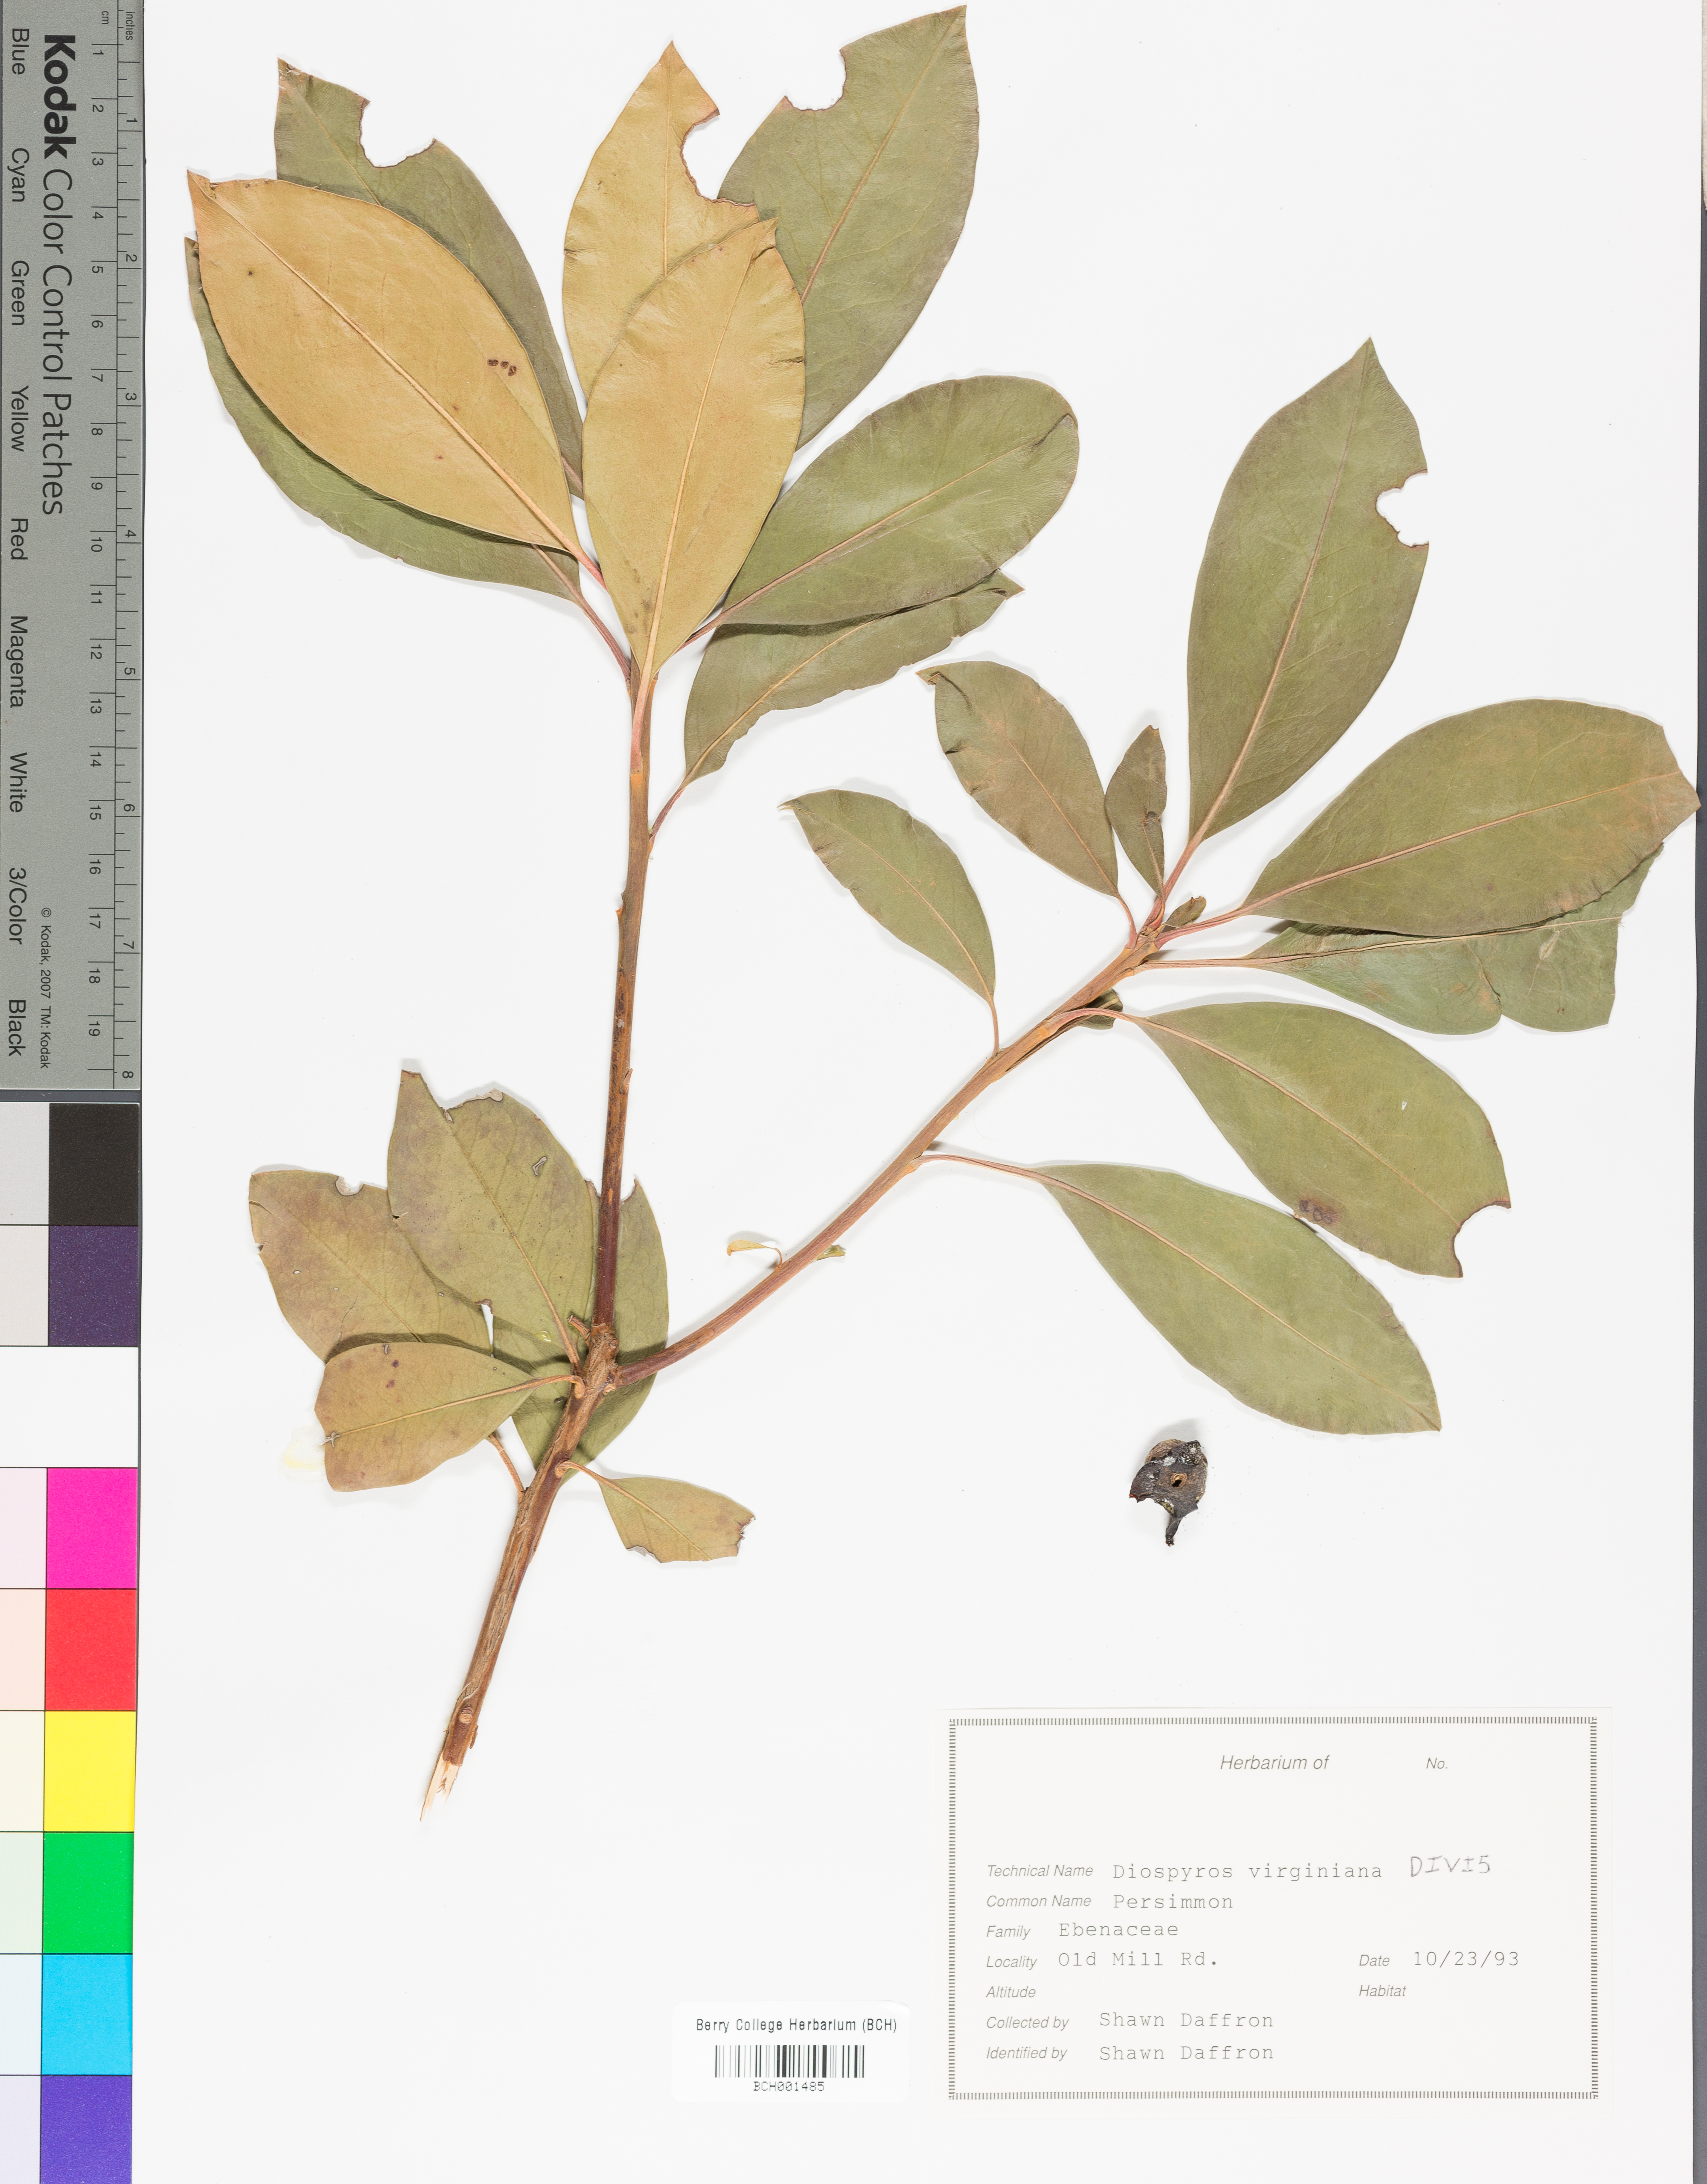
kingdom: Plantae
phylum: Tracheophyta
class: Magnoliopsida
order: Ericales
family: Ebenaceae
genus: Diospyros
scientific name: Diospyros virginiana
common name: Persimmon
